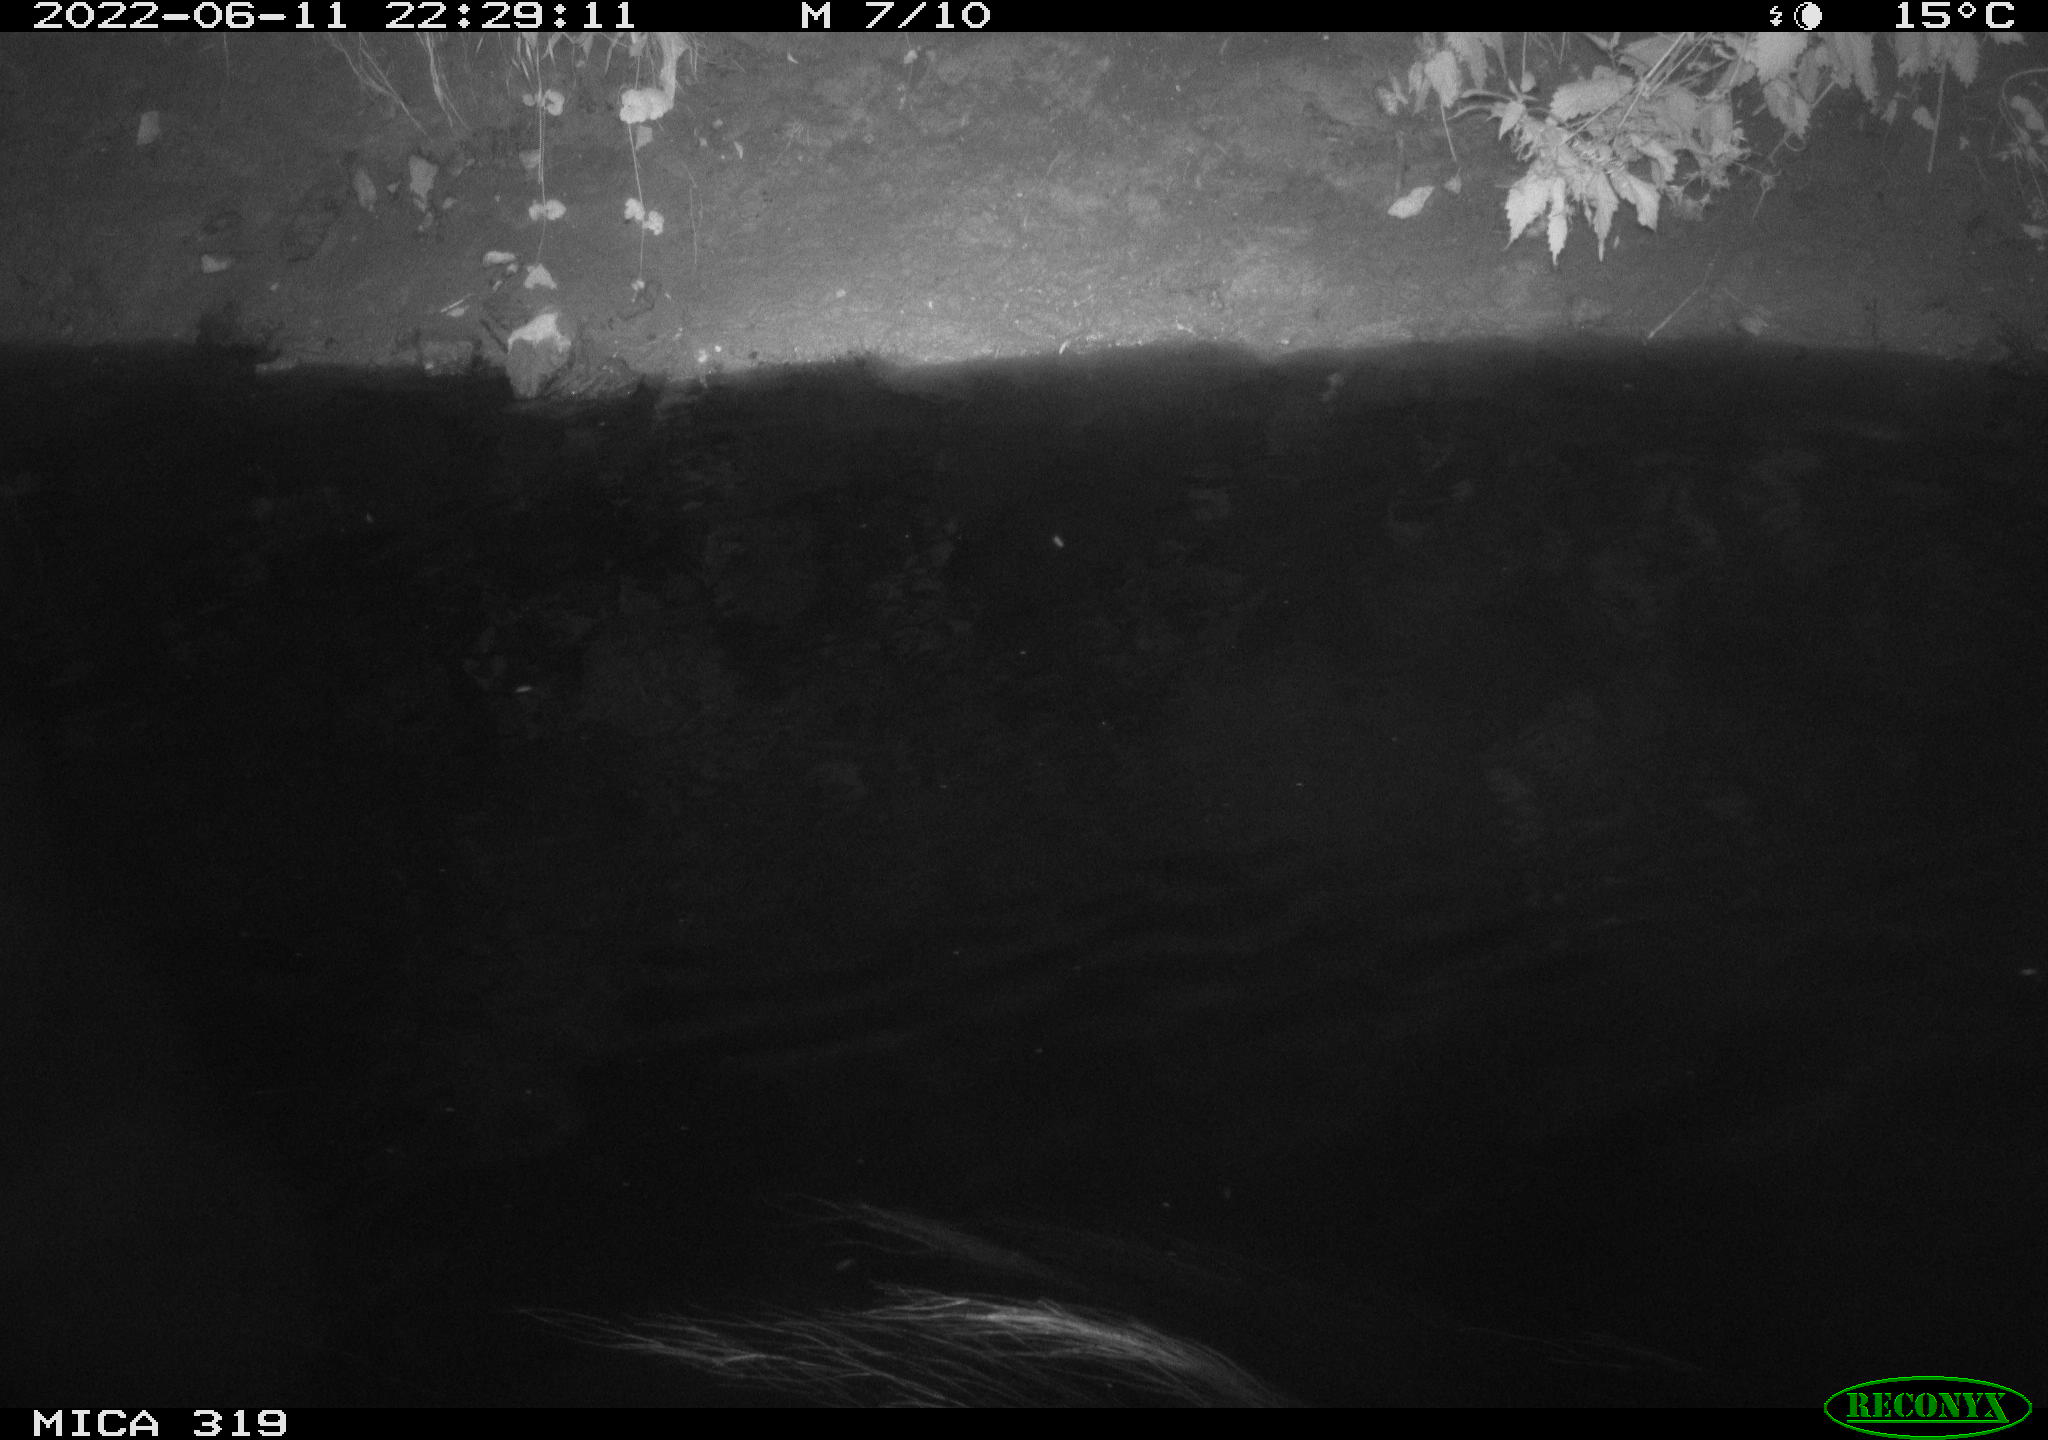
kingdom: Animalia
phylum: Chordata
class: Aves
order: Anseriformes
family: Anatidae
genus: Anas
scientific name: Anas
